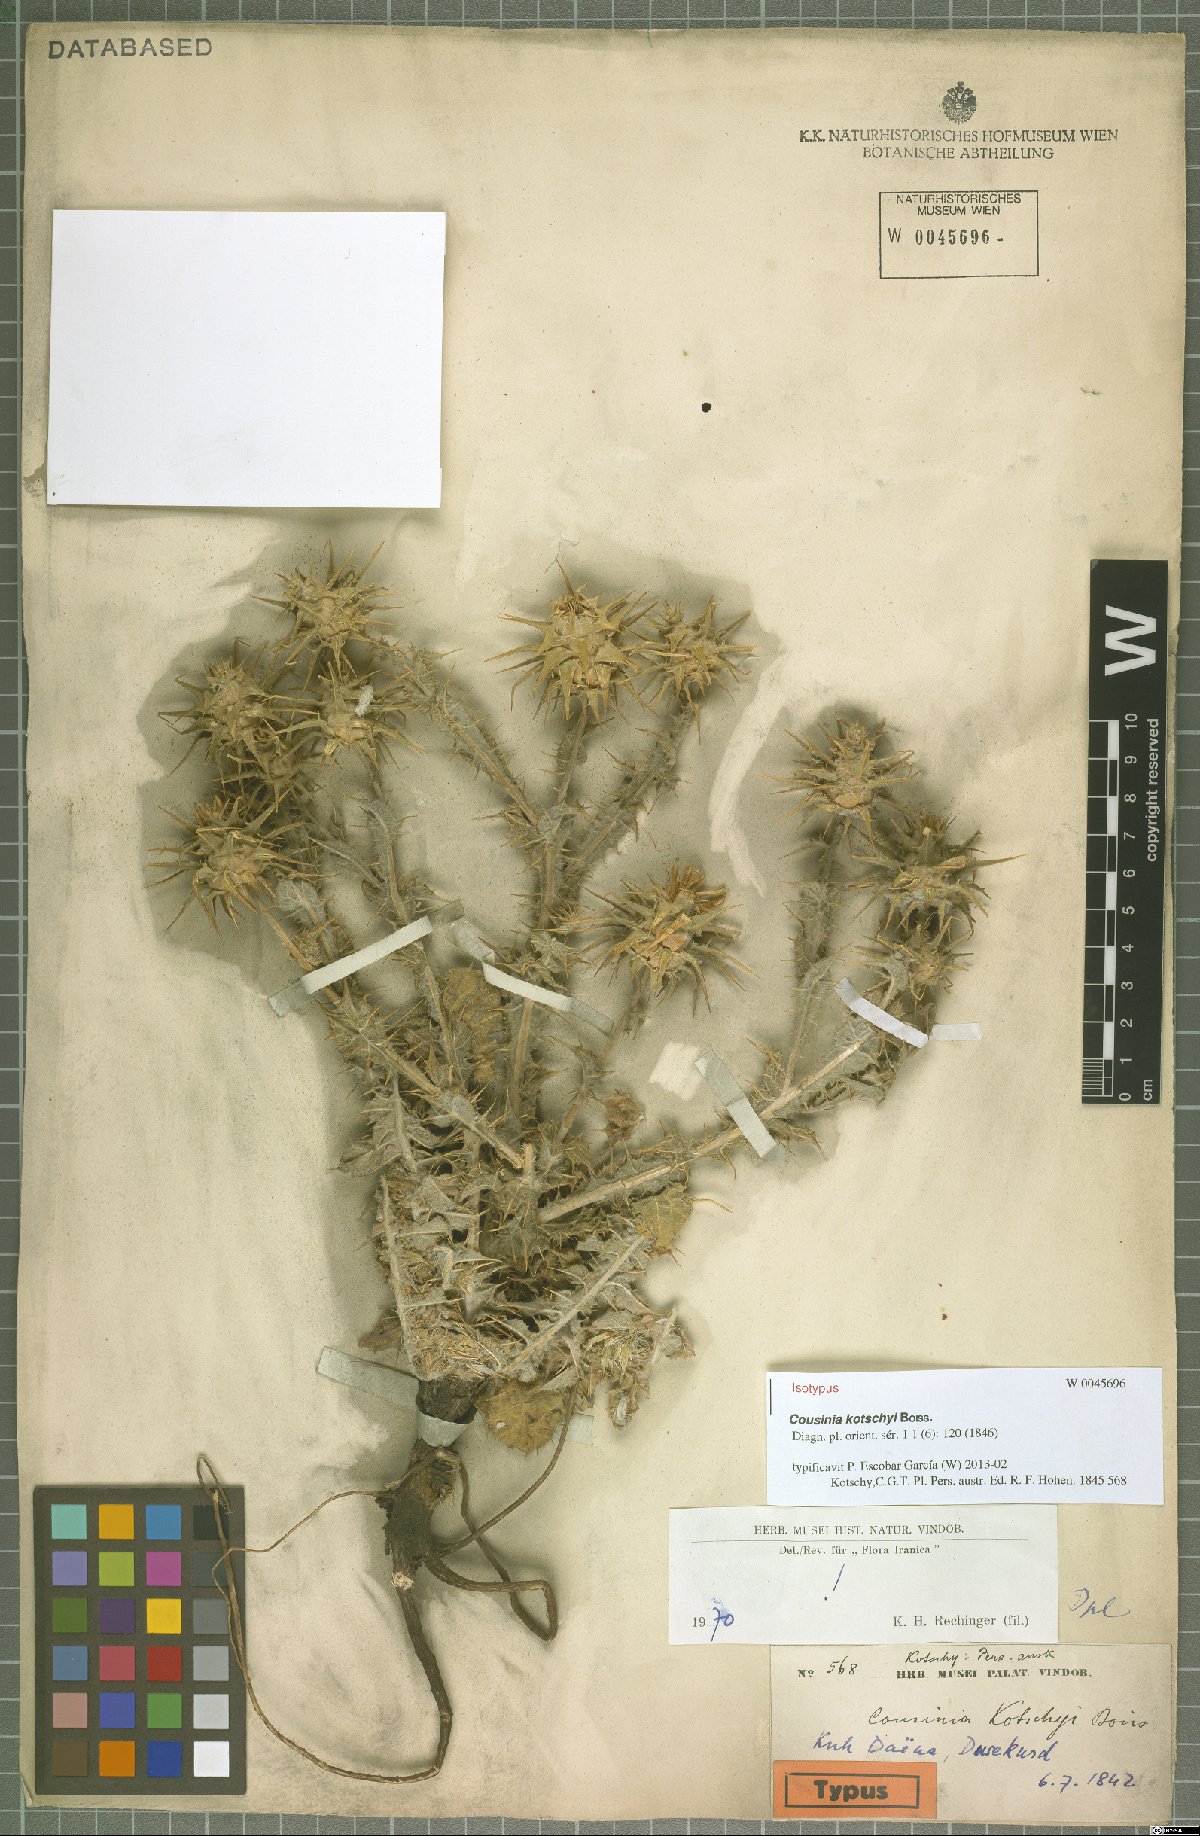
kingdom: Plantae
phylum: Tracheophyta
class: Magnoliopsida
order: Asterales
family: Asteraceae
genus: Cousinia
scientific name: Cousinia kotschyi
